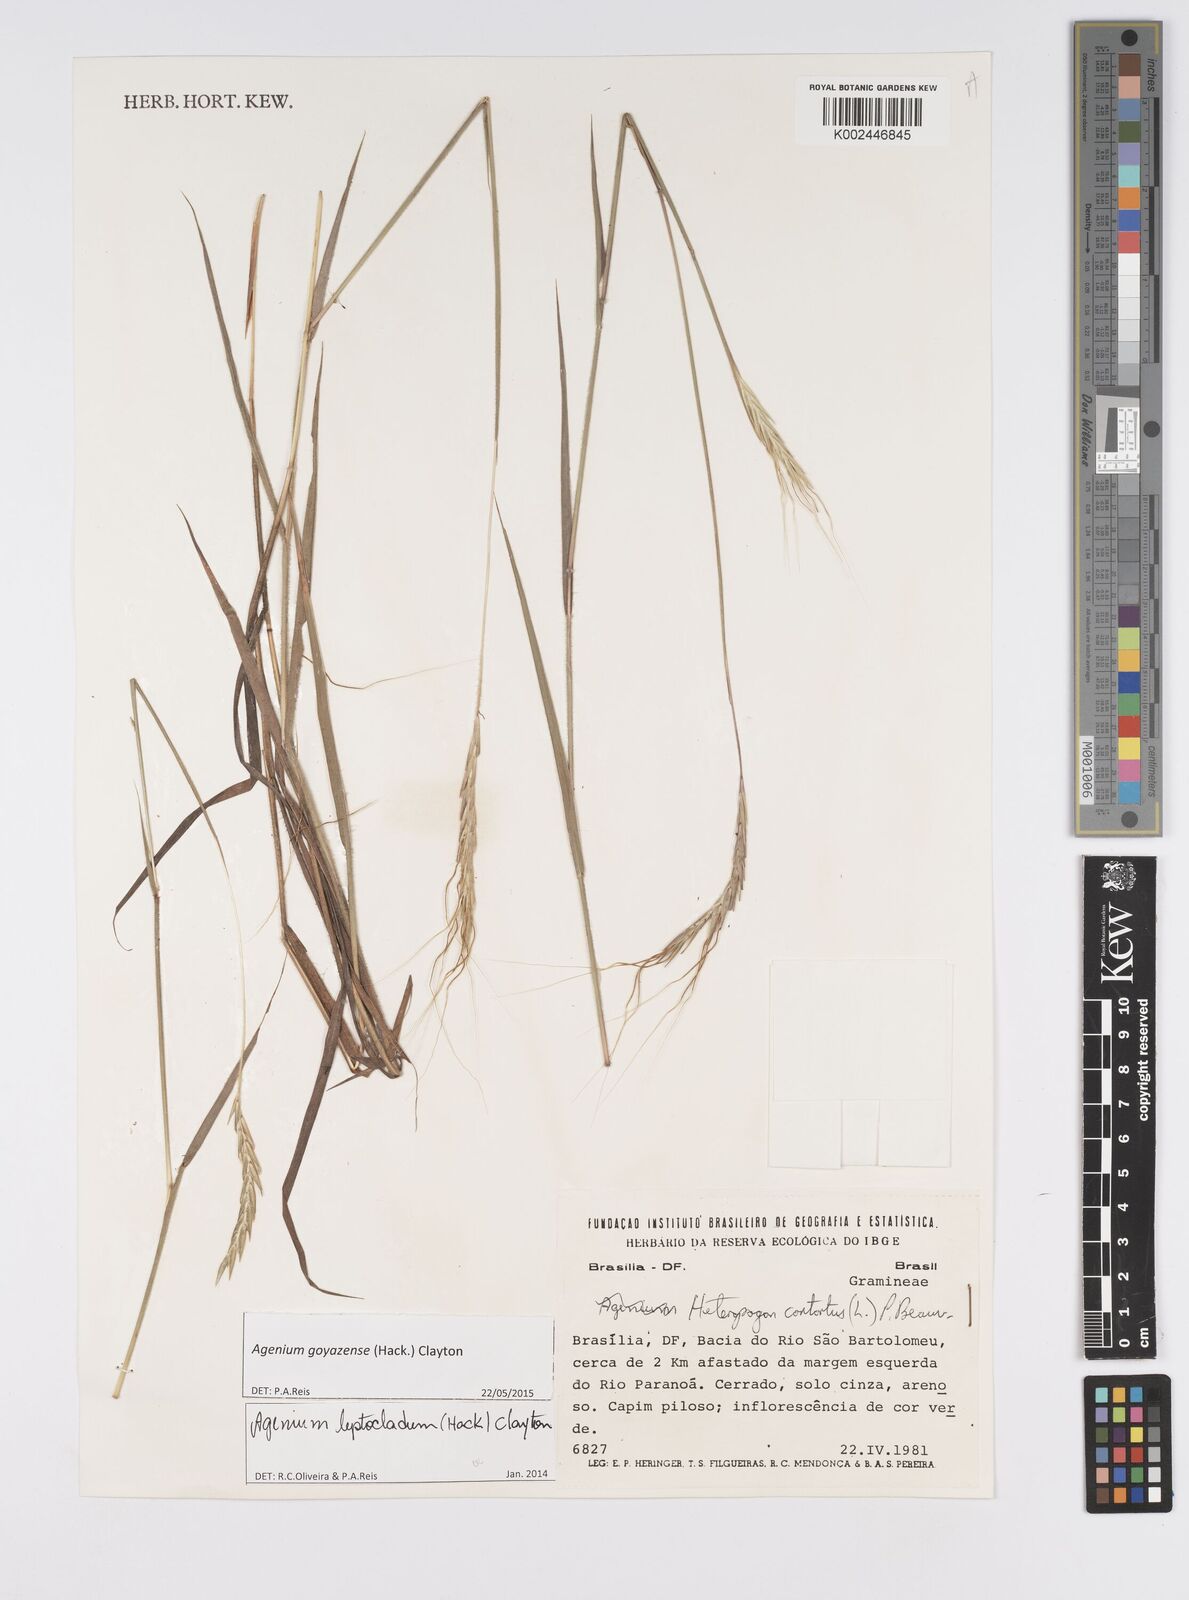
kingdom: Plantae
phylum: Tracheophyta
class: Liliopsida
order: Poales
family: Poaceae
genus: Agenium
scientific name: Agenium leptocladum
